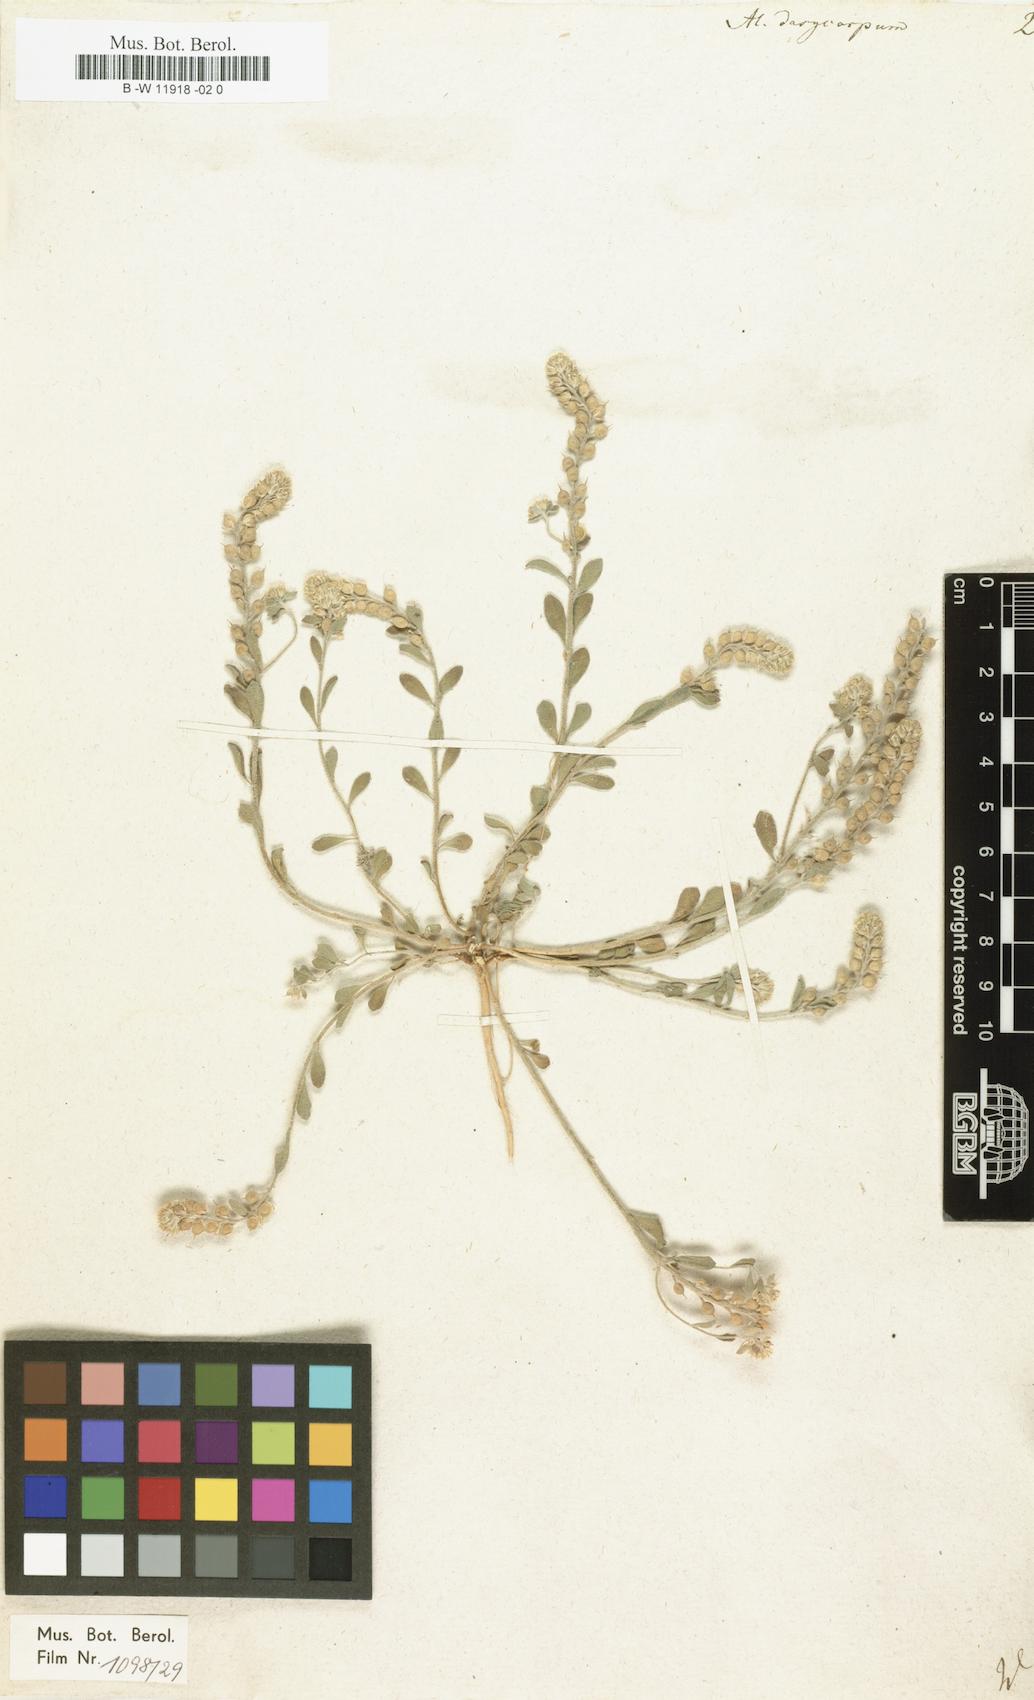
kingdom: Plantae
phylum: Tracheophyta
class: Magnoliopsida
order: Brassicales
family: Brassicaceae
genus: Alyssum
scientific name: Alyssum dasycarpum
